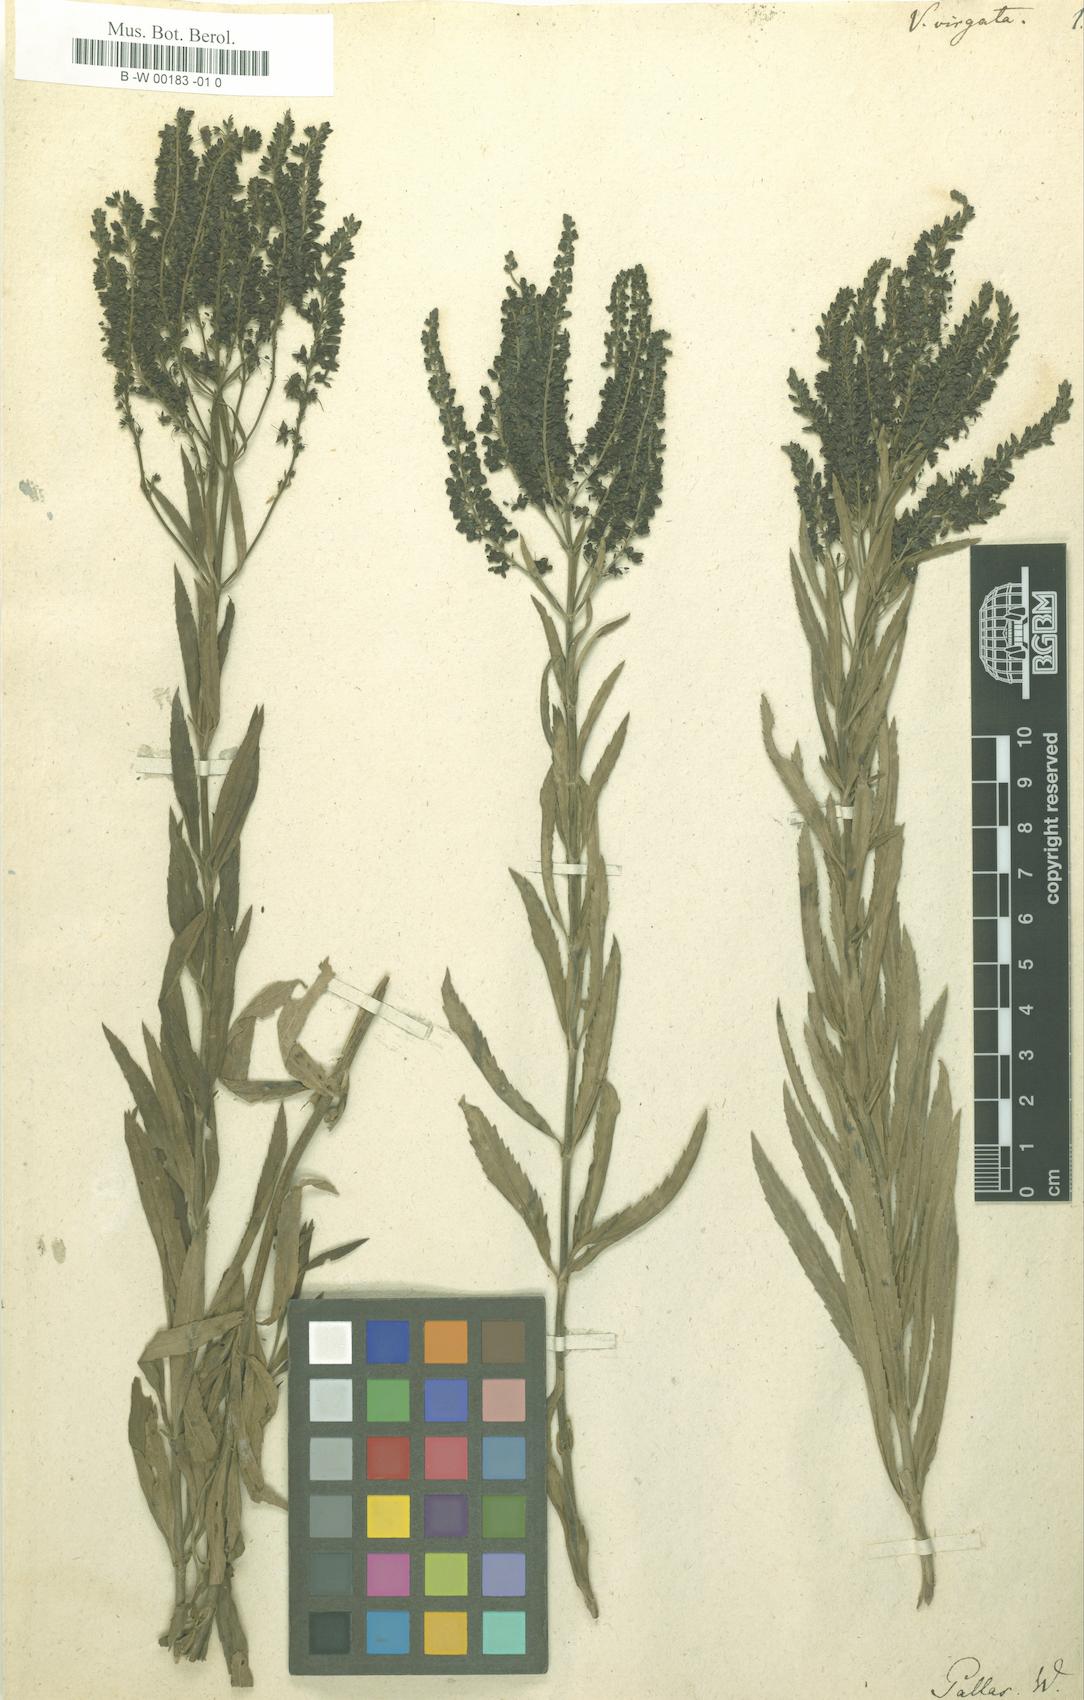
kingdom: Plantae
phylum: Tracheophyta
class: Magnoliopsida
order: Lamiales
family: Plantaginaceae
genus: Veronica
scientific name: Veronica
